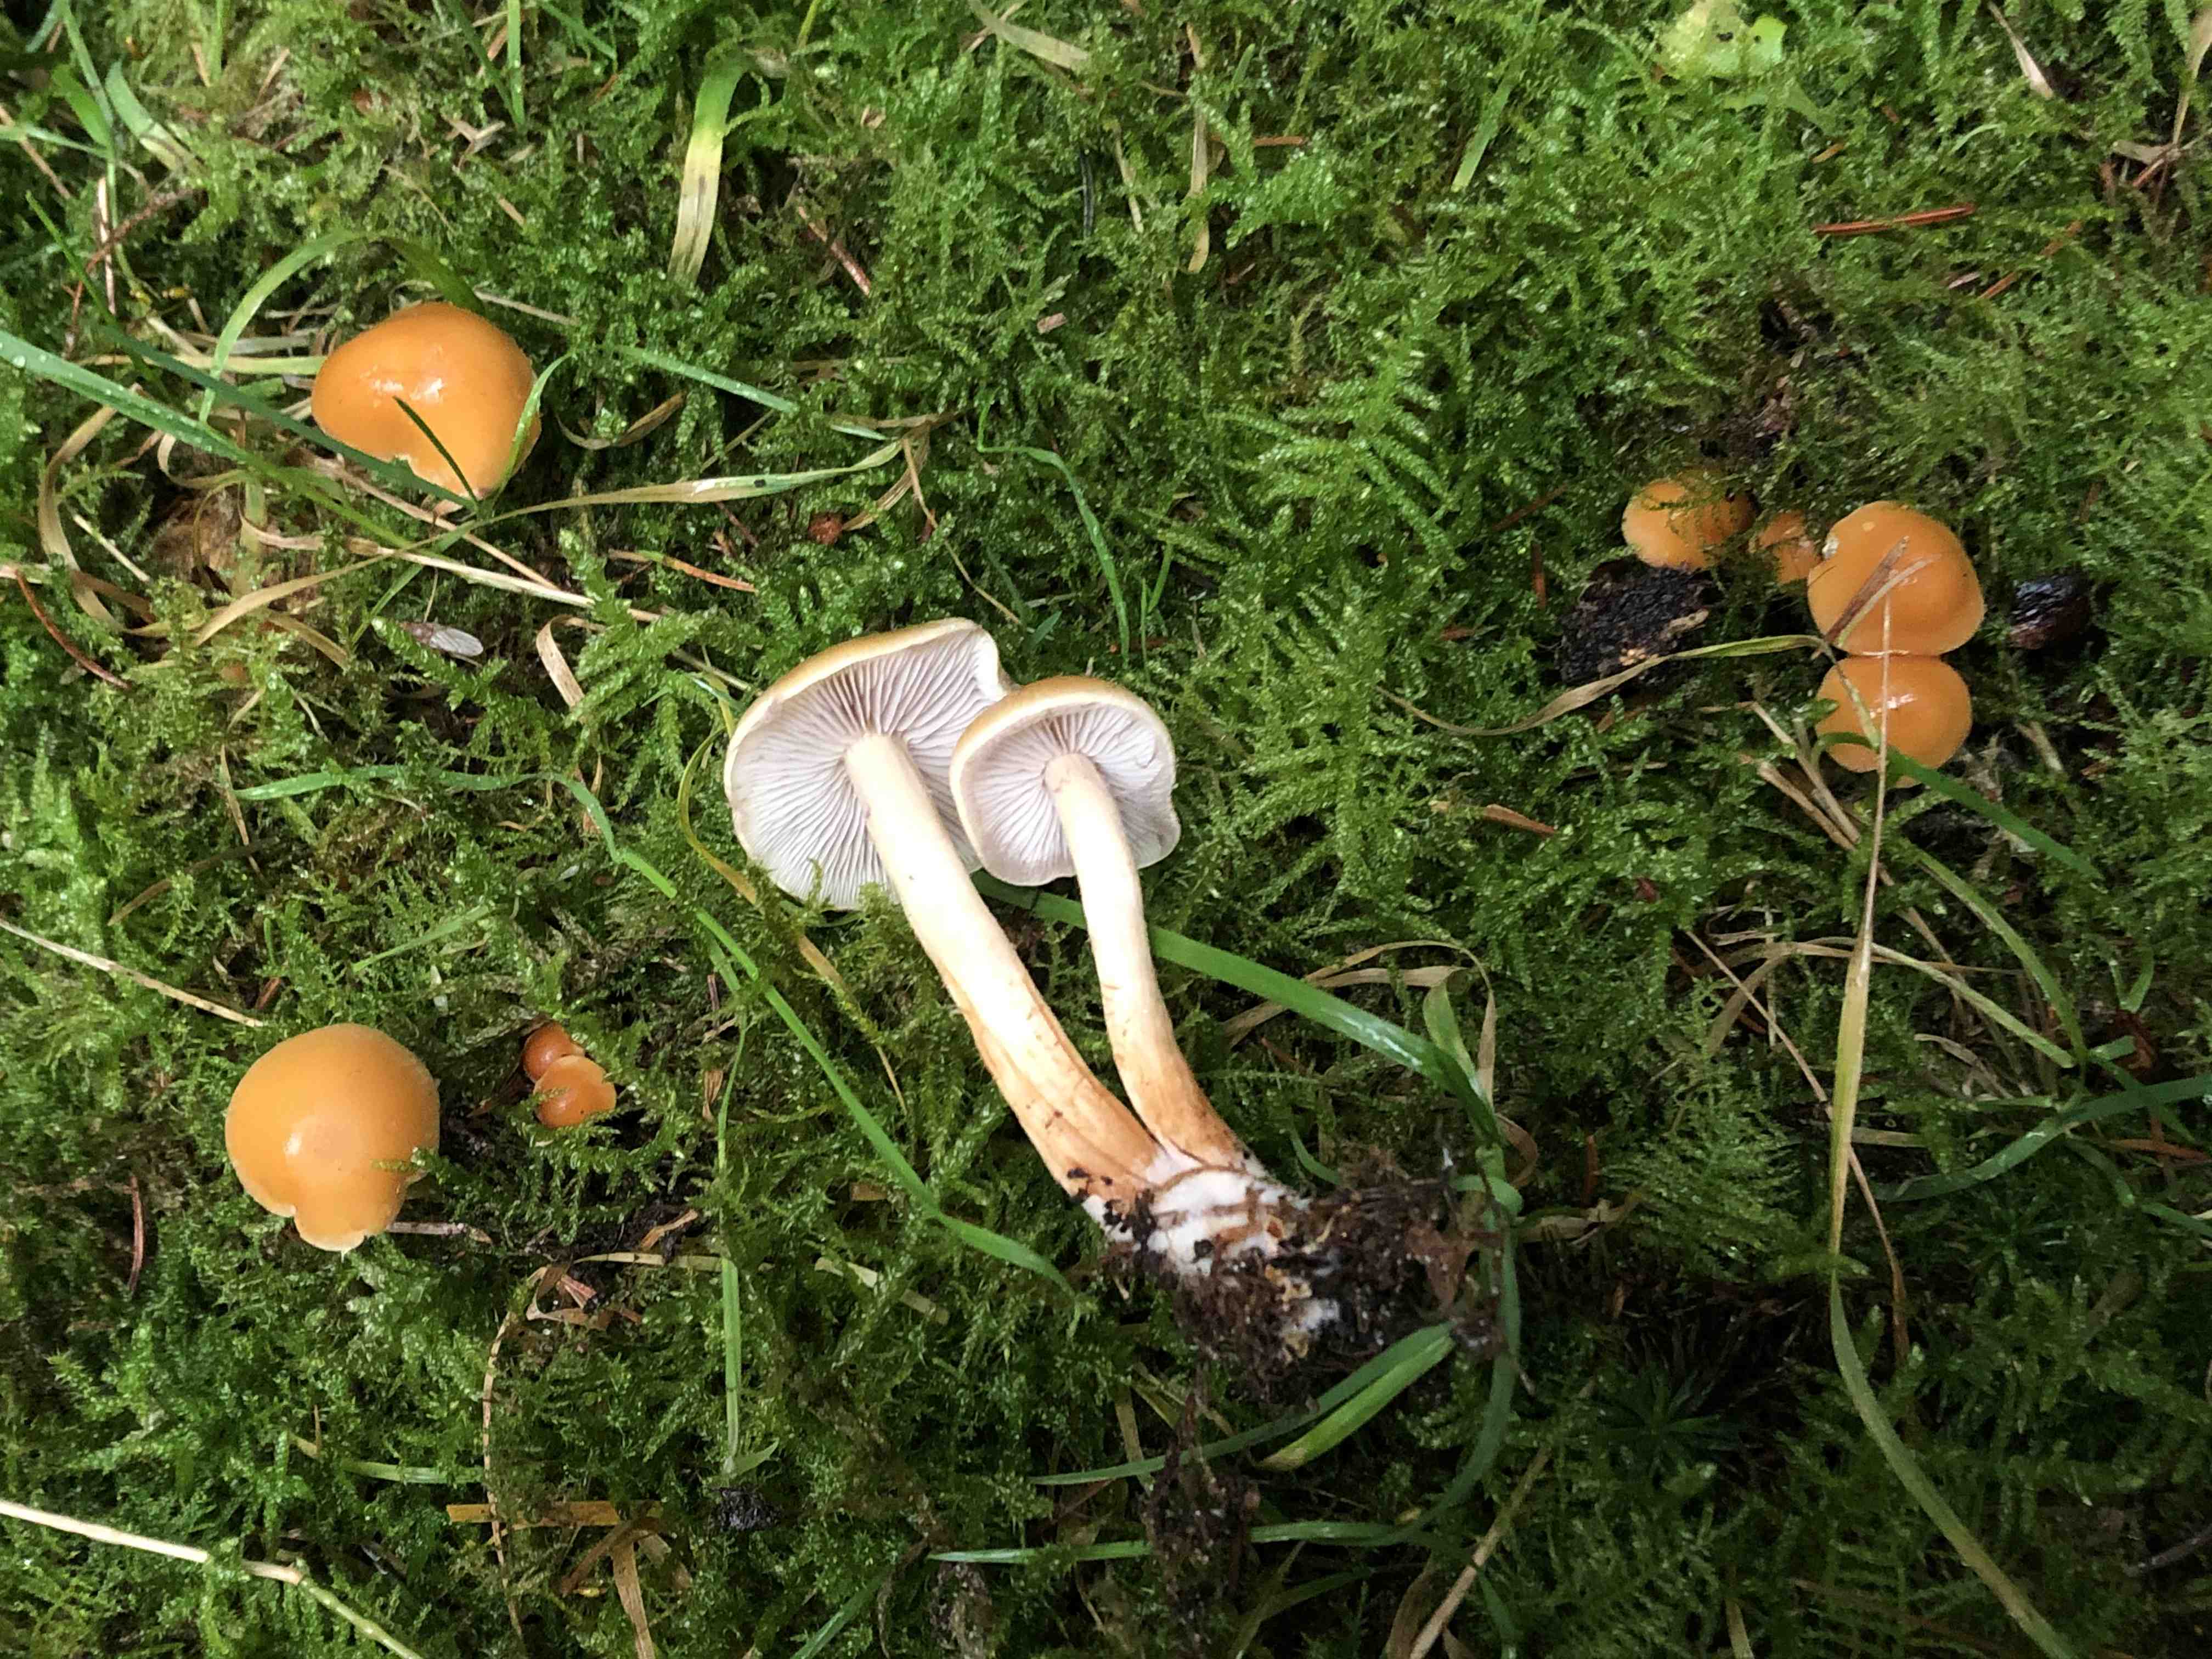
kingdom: Fungi
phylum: Basidiomycota
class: Agaricomycetes
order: Agaricales
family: Strophariaceae
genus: Hypholoma
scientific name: Hypholoma capnoides
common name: gran-svovlhat
